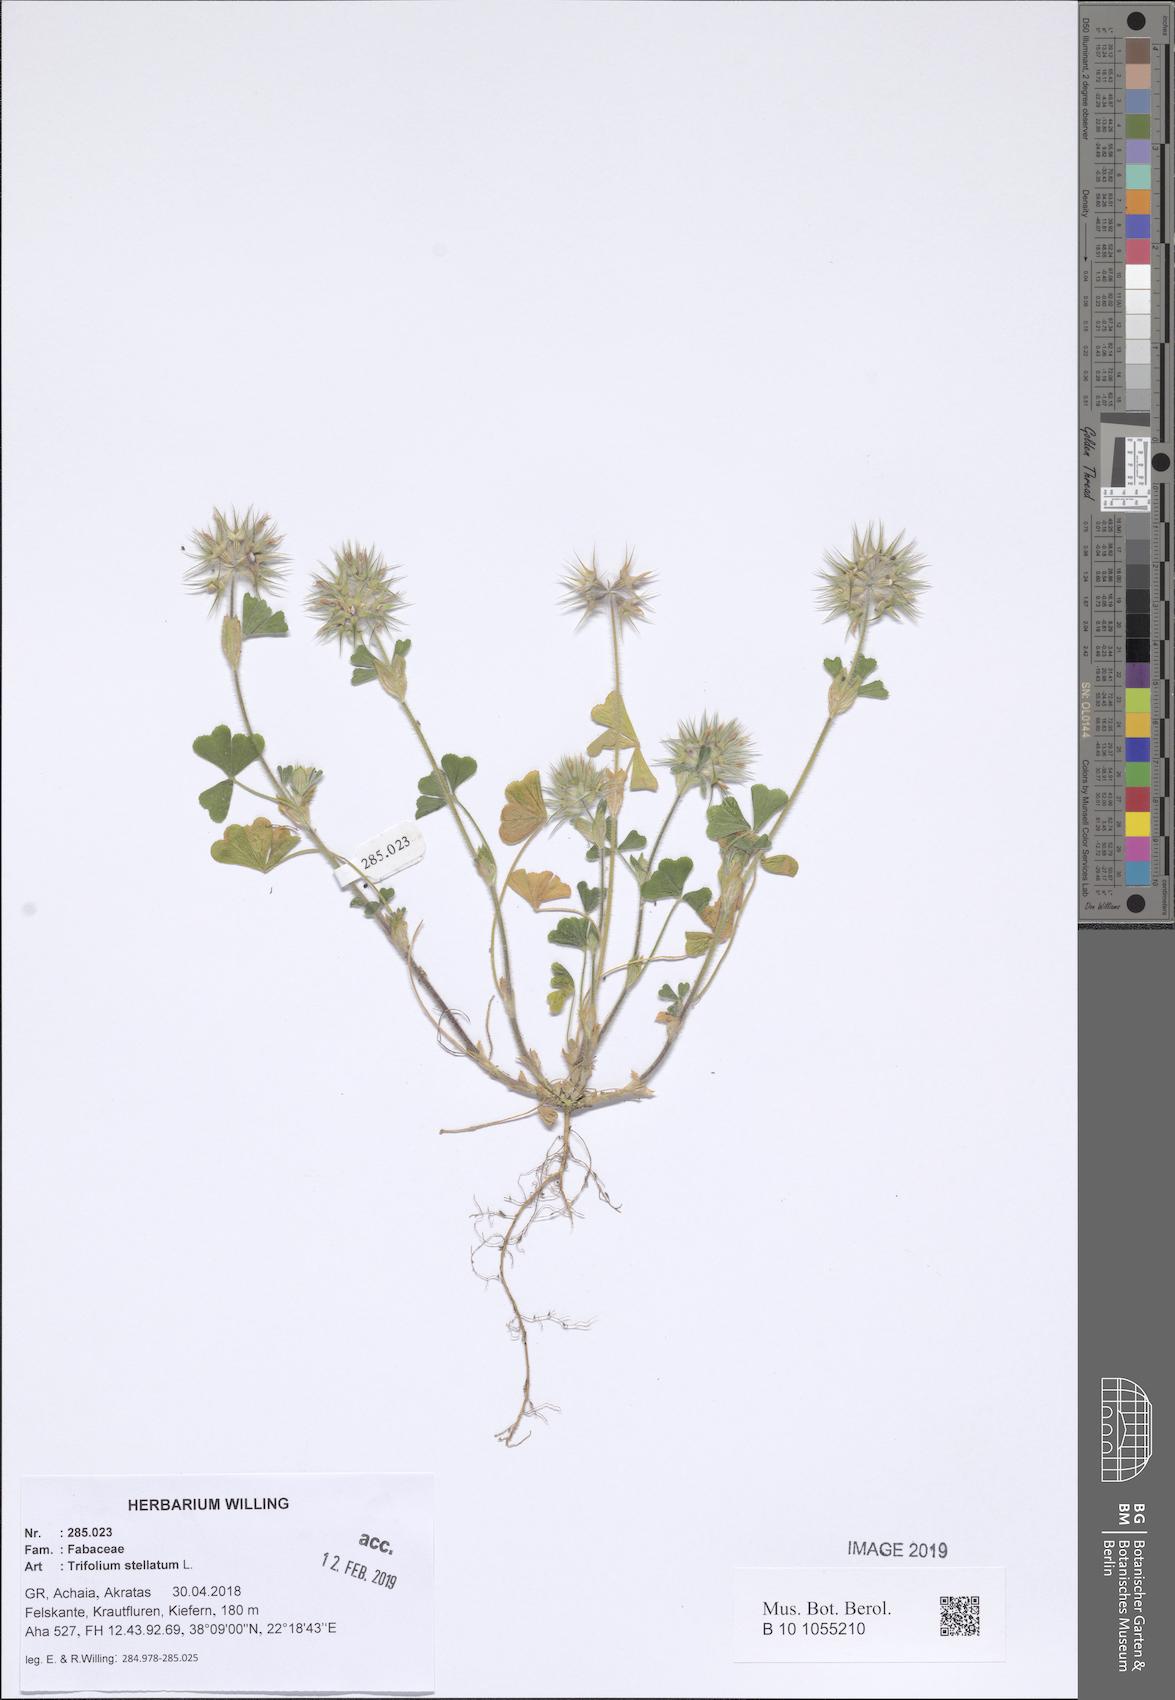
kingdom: Plantae
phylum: Tracheophyta
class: Magnoliopsida
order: Fabales
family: Fabaceae
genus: Trifolium
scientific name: Trifolium stellatum
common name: Starry clover
